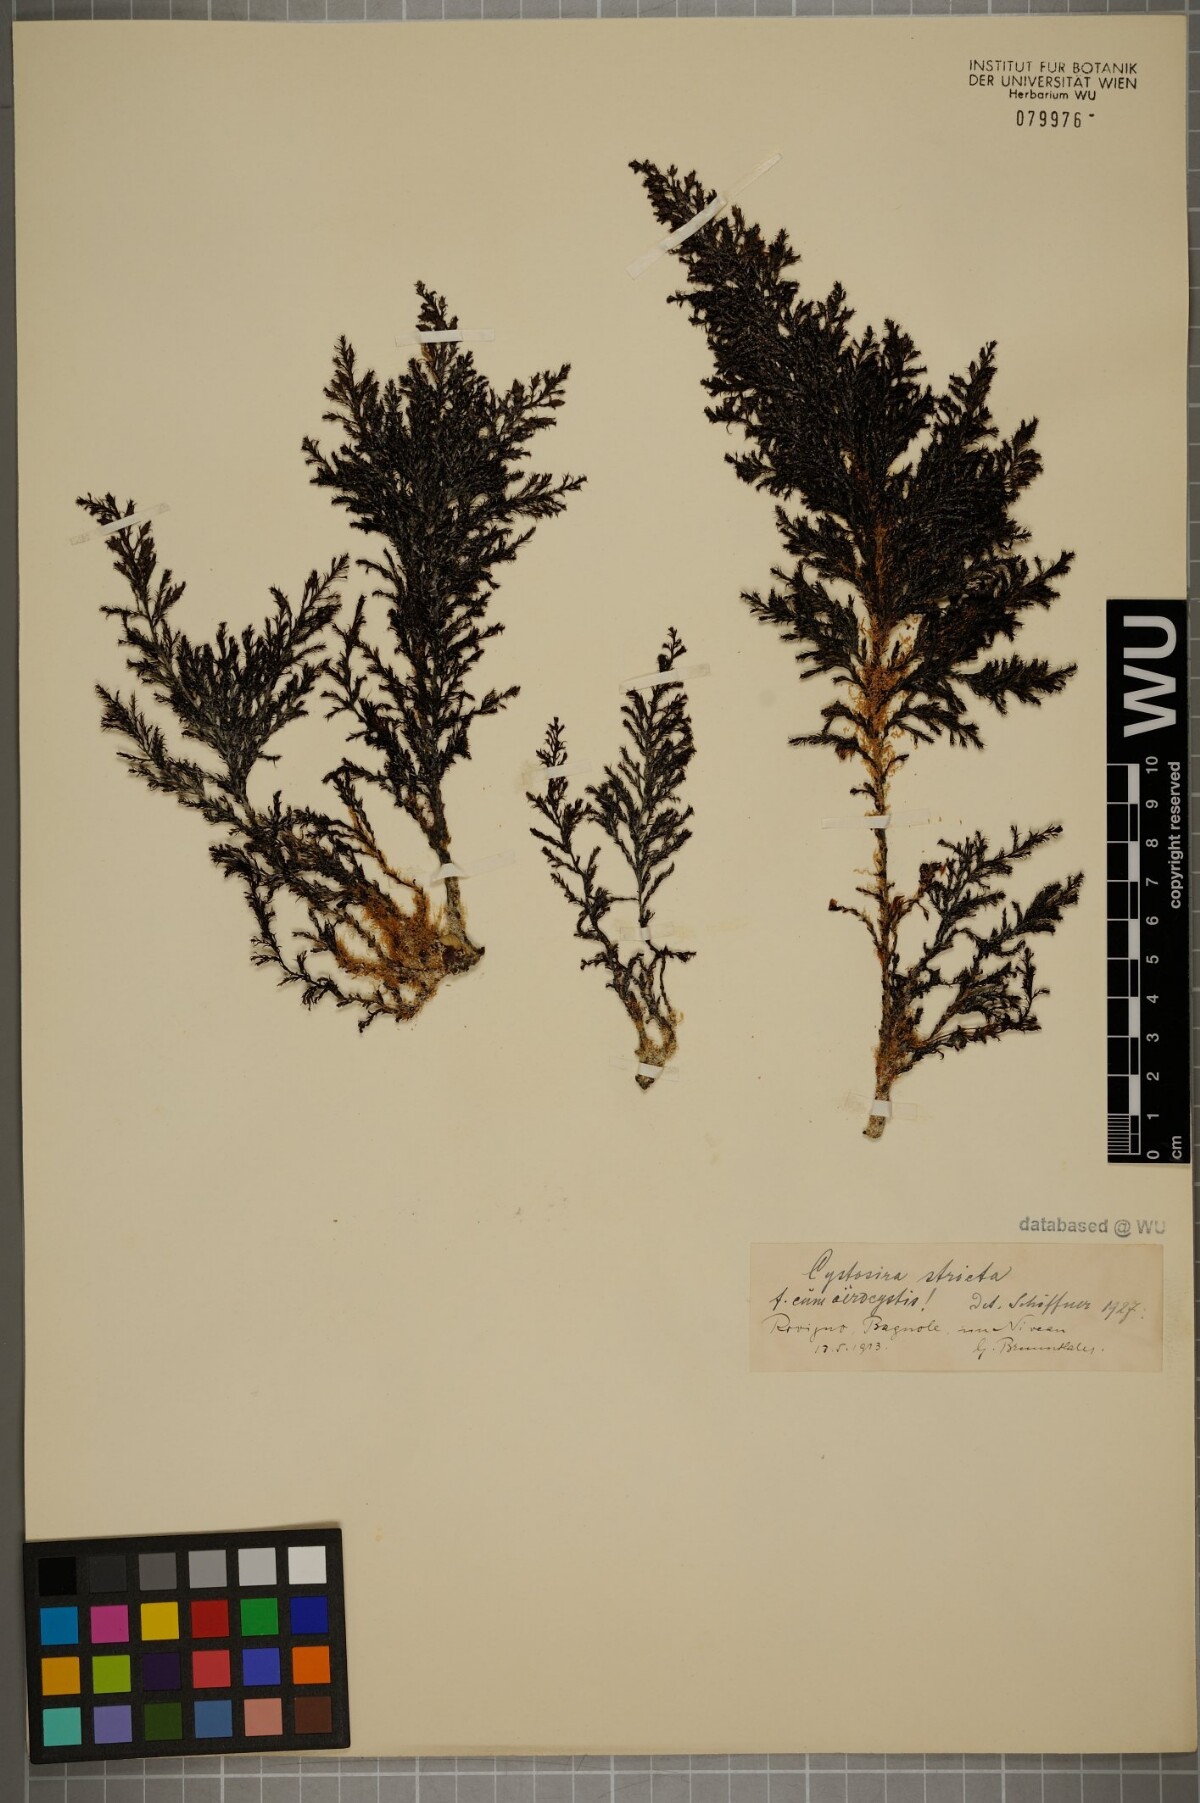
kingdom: Chromista
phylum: Ochrophyta
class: Phaeophyceae
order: Fucales
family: Sargassaceae
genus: Cystoseira
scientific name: Cystoseira Ericaria amentacea
